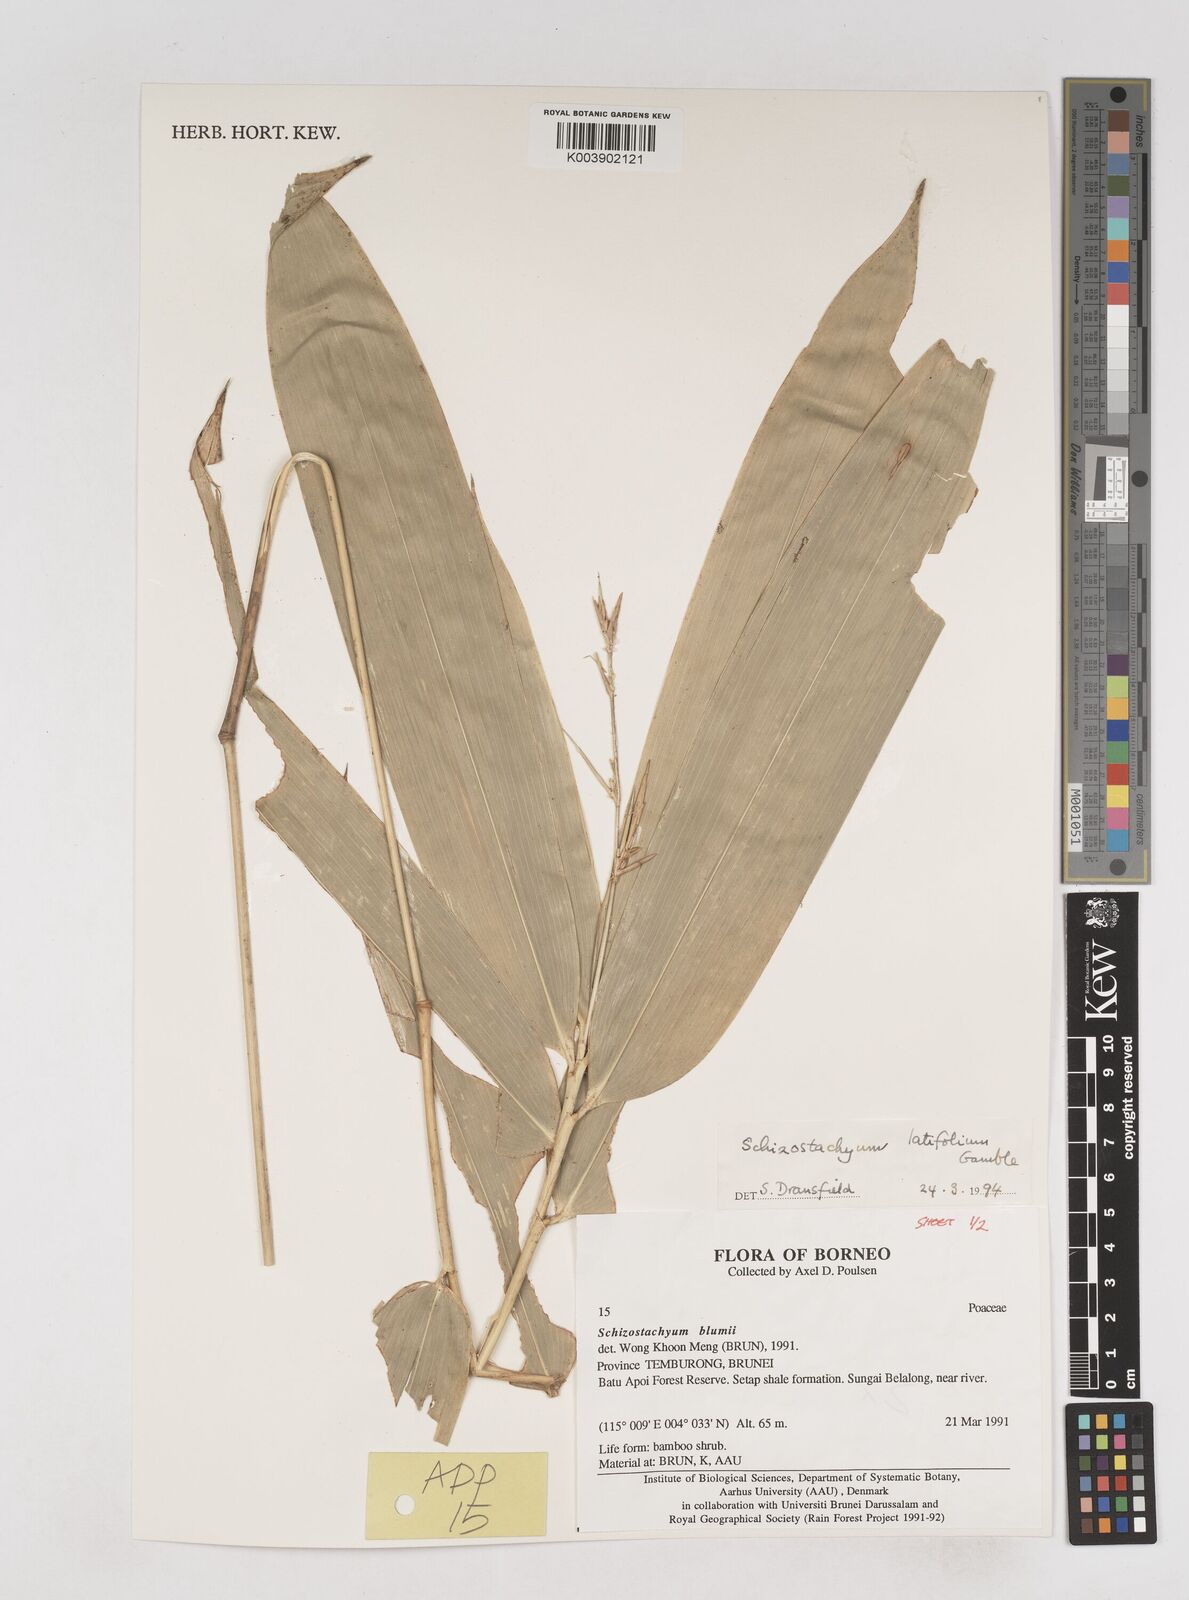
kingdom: Plantae
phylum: Tracheophyta
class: Liliopsida
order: Poales
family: Poaceae
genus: Schizostachyum
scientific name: Schizostachyum
